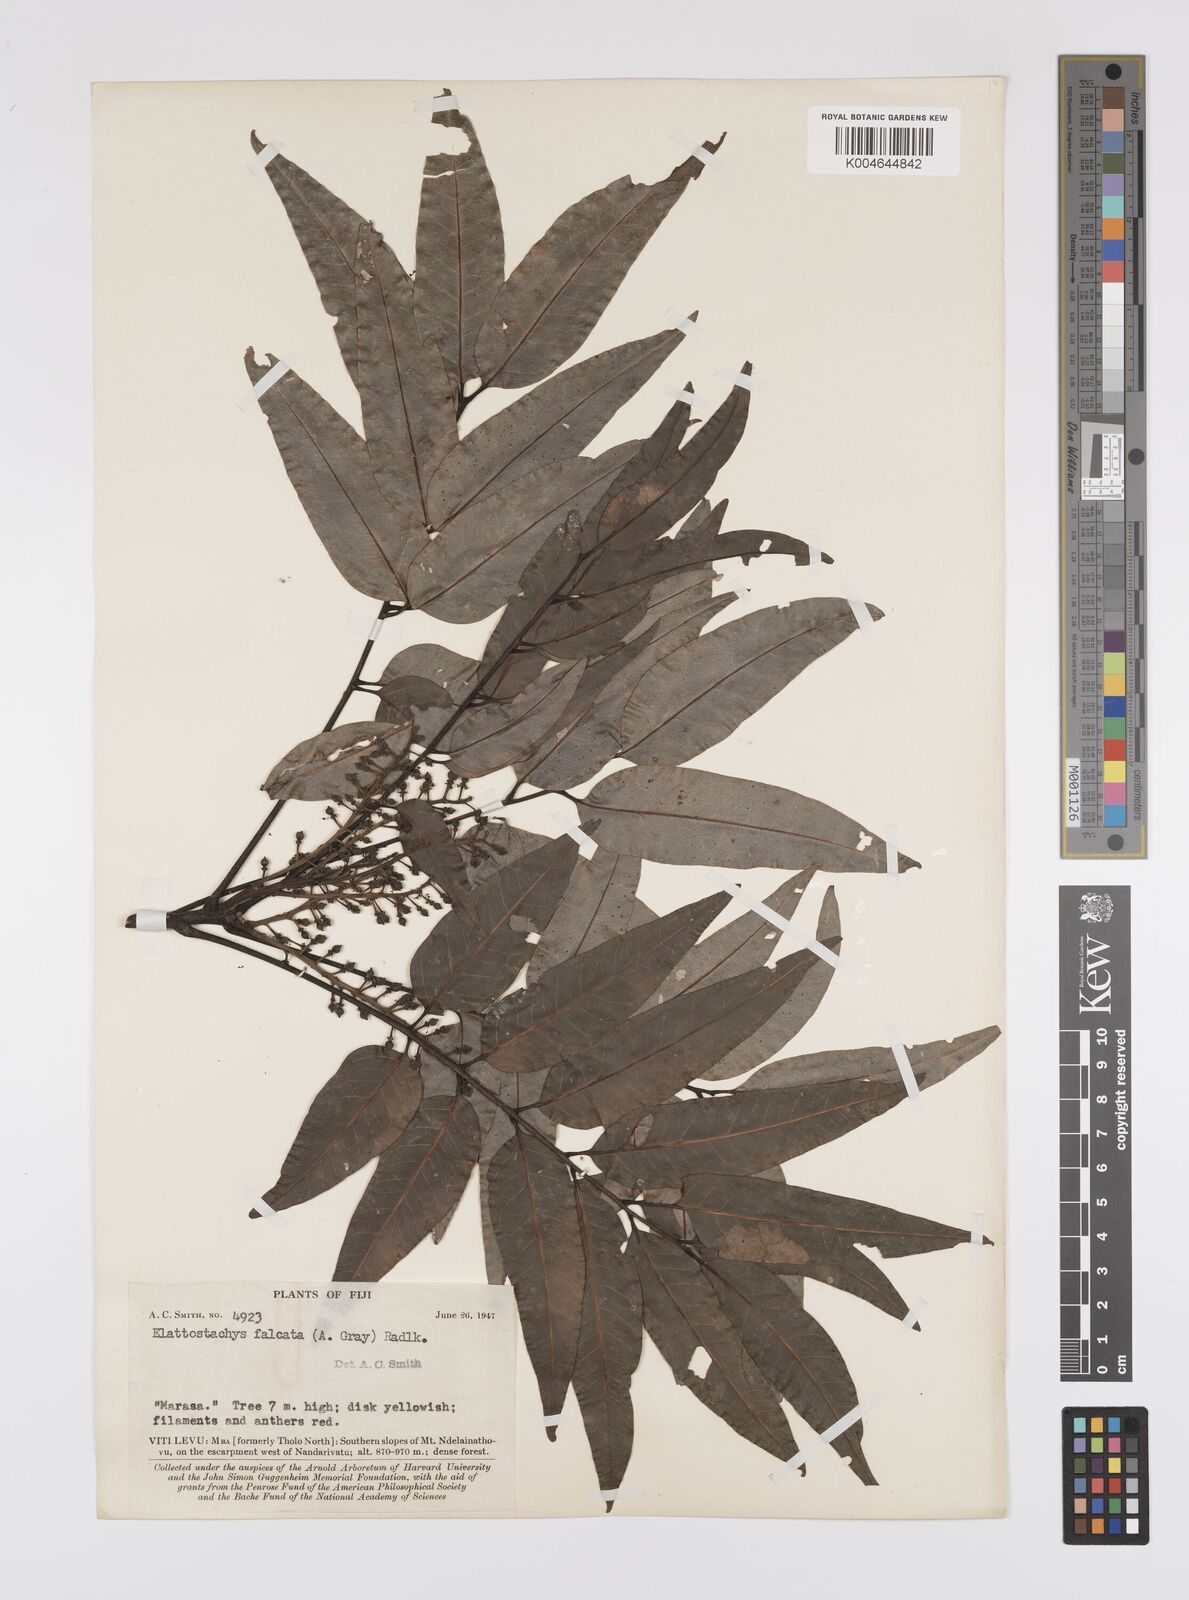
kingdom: Plantae
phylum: Tracheophyta
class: Magnoliopsida
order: Sapindales
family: Sapindaceae
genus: Elattostachys
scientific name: Elattostachys apetala
